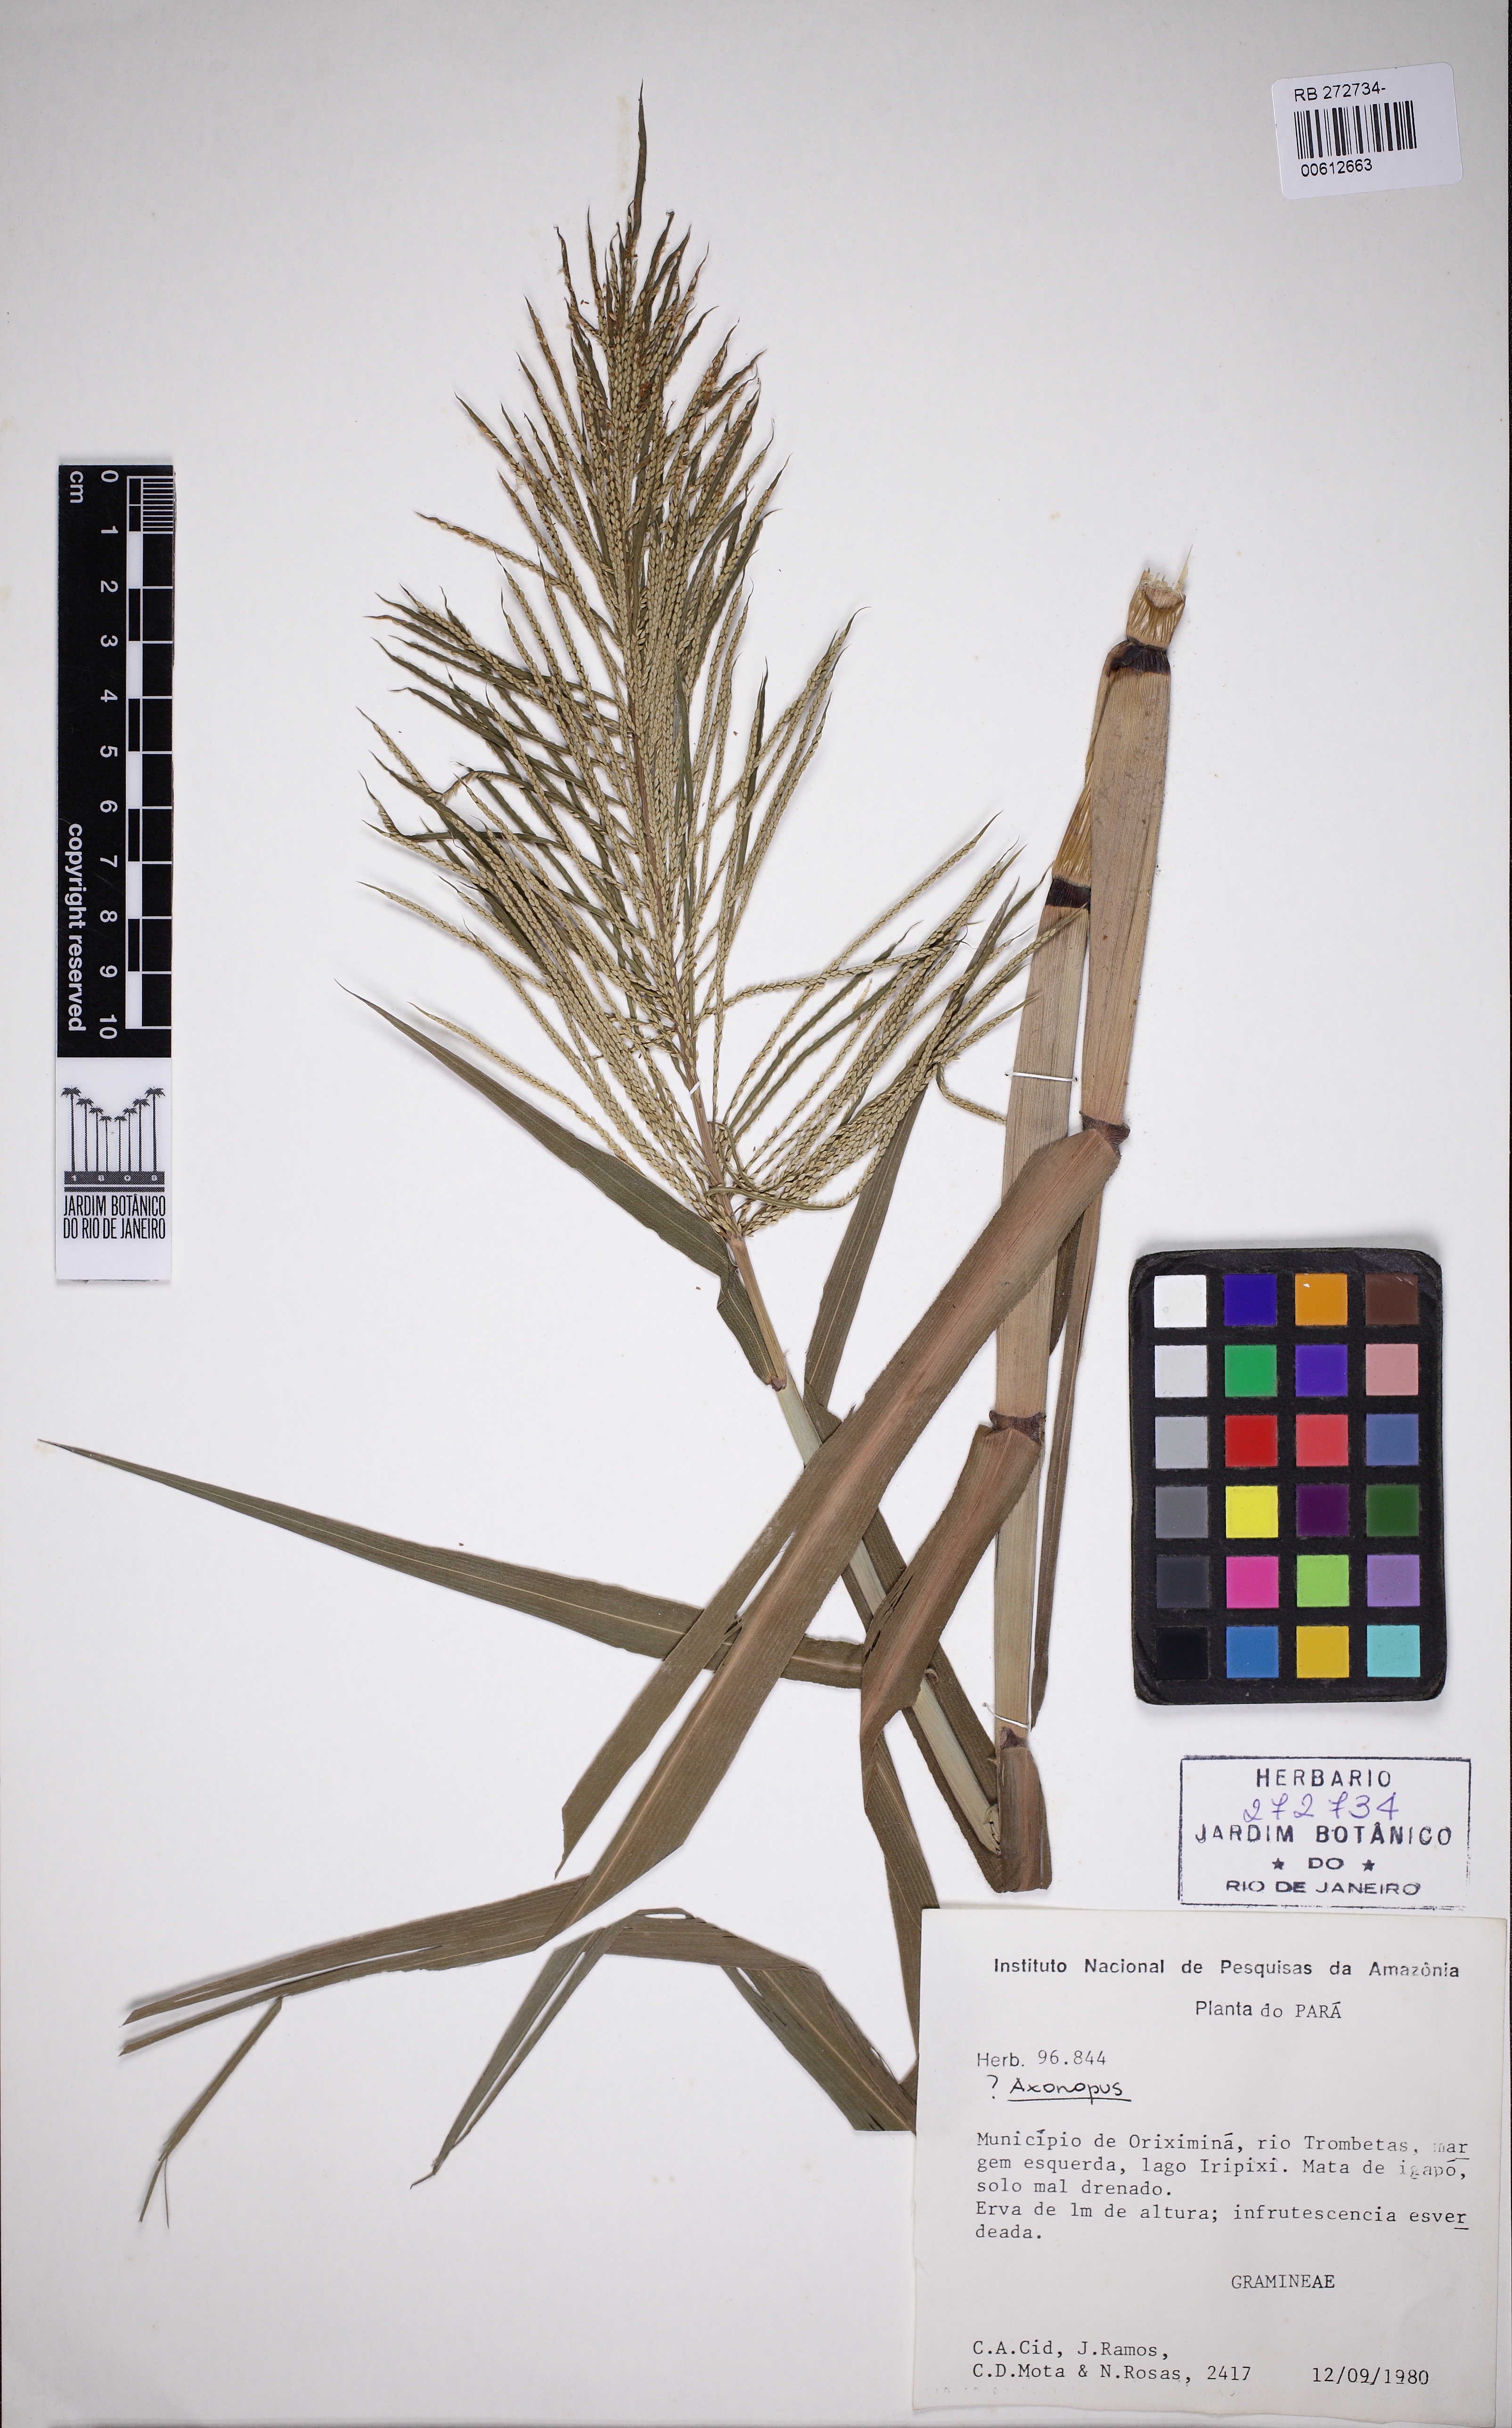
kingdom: Plantae
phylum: Tracheophyta
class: Liliopsida
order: Poales
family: Poaceae
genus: Axonopus
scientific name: Axonopus
